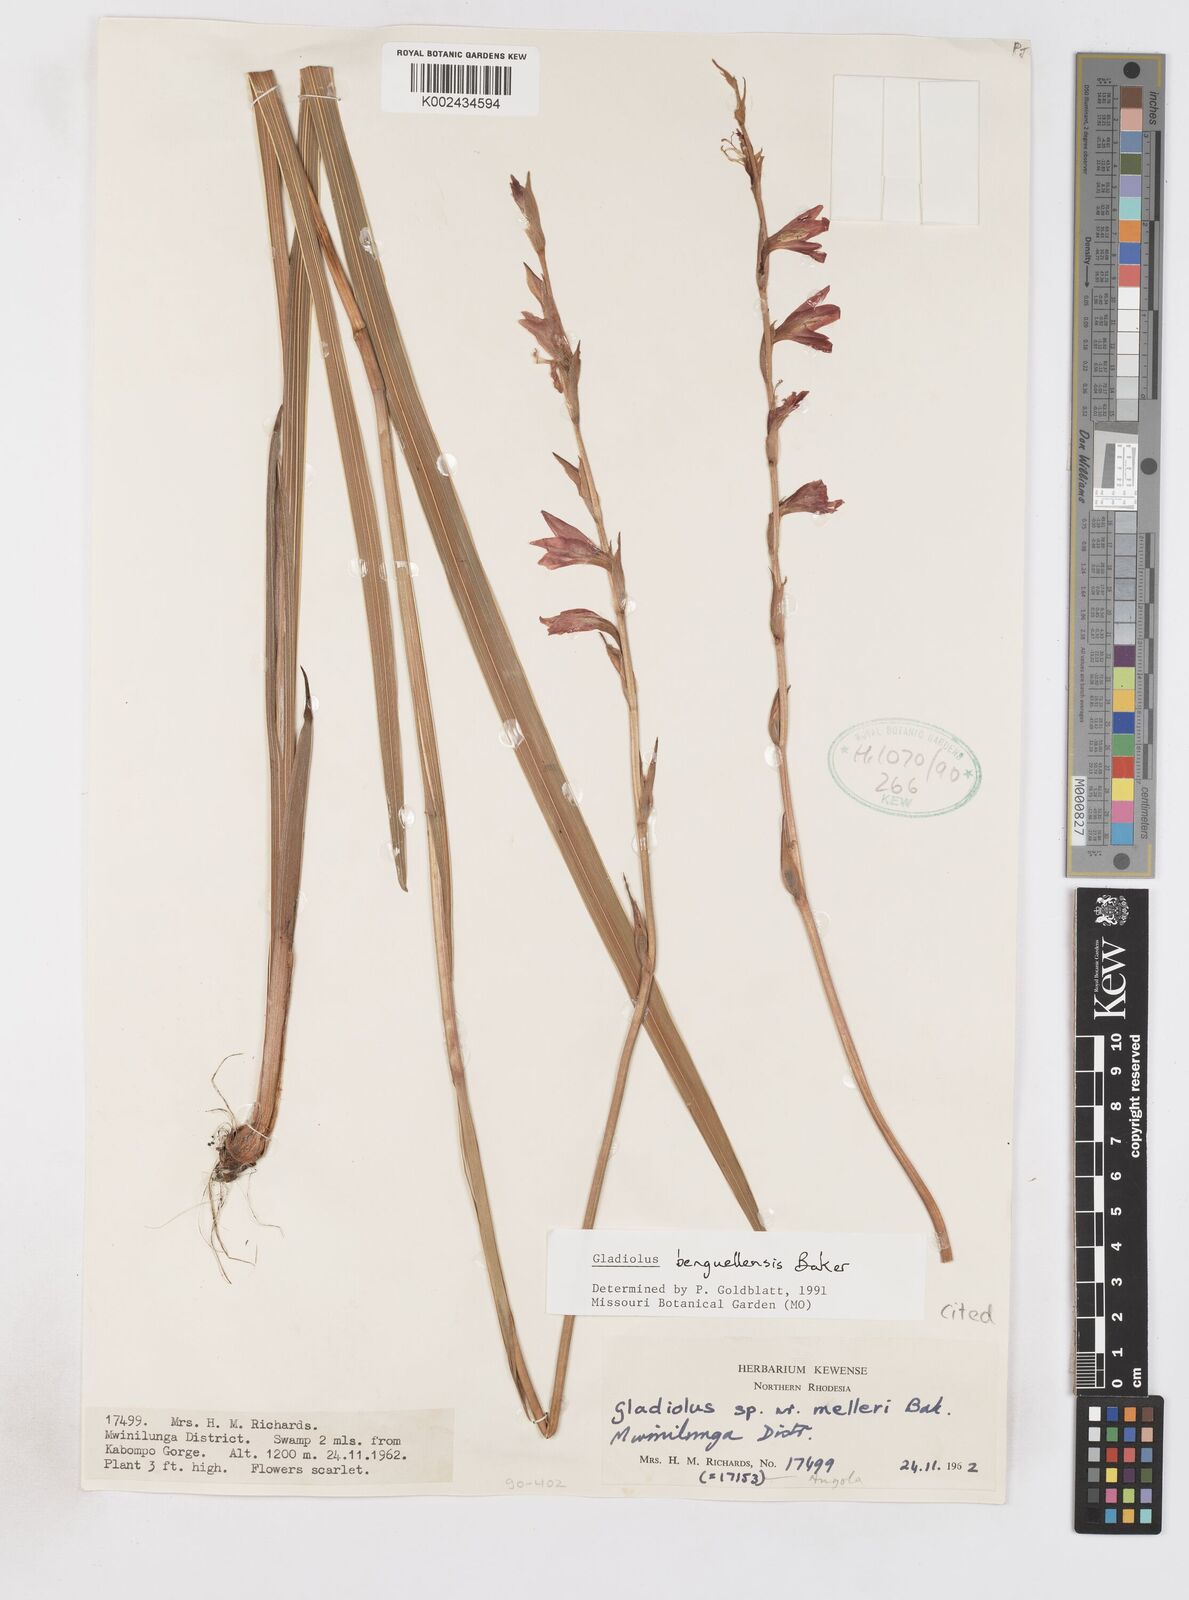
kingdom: Plantae
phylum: Tracheophyta
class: Liliopsida
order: Asparagales
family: Iridaceae
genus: Gladiolus
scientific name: Gladiolus benguellensis
